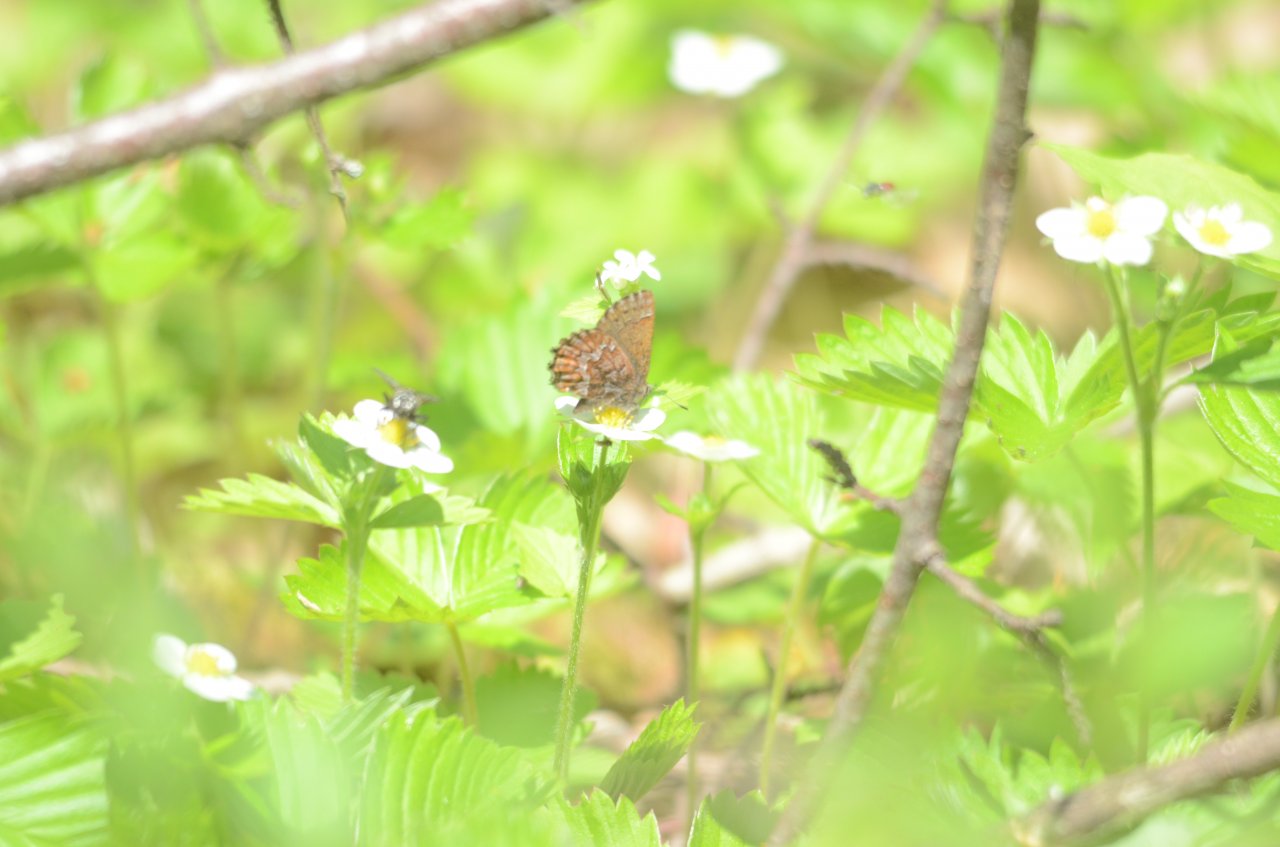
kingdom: Animalia
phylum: Arthropoda
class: Insecta
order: Lepidoptera
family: Lycaenidae
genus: Incisalia
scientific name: Incisalia niphon
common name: Eastern Pine Elfin
